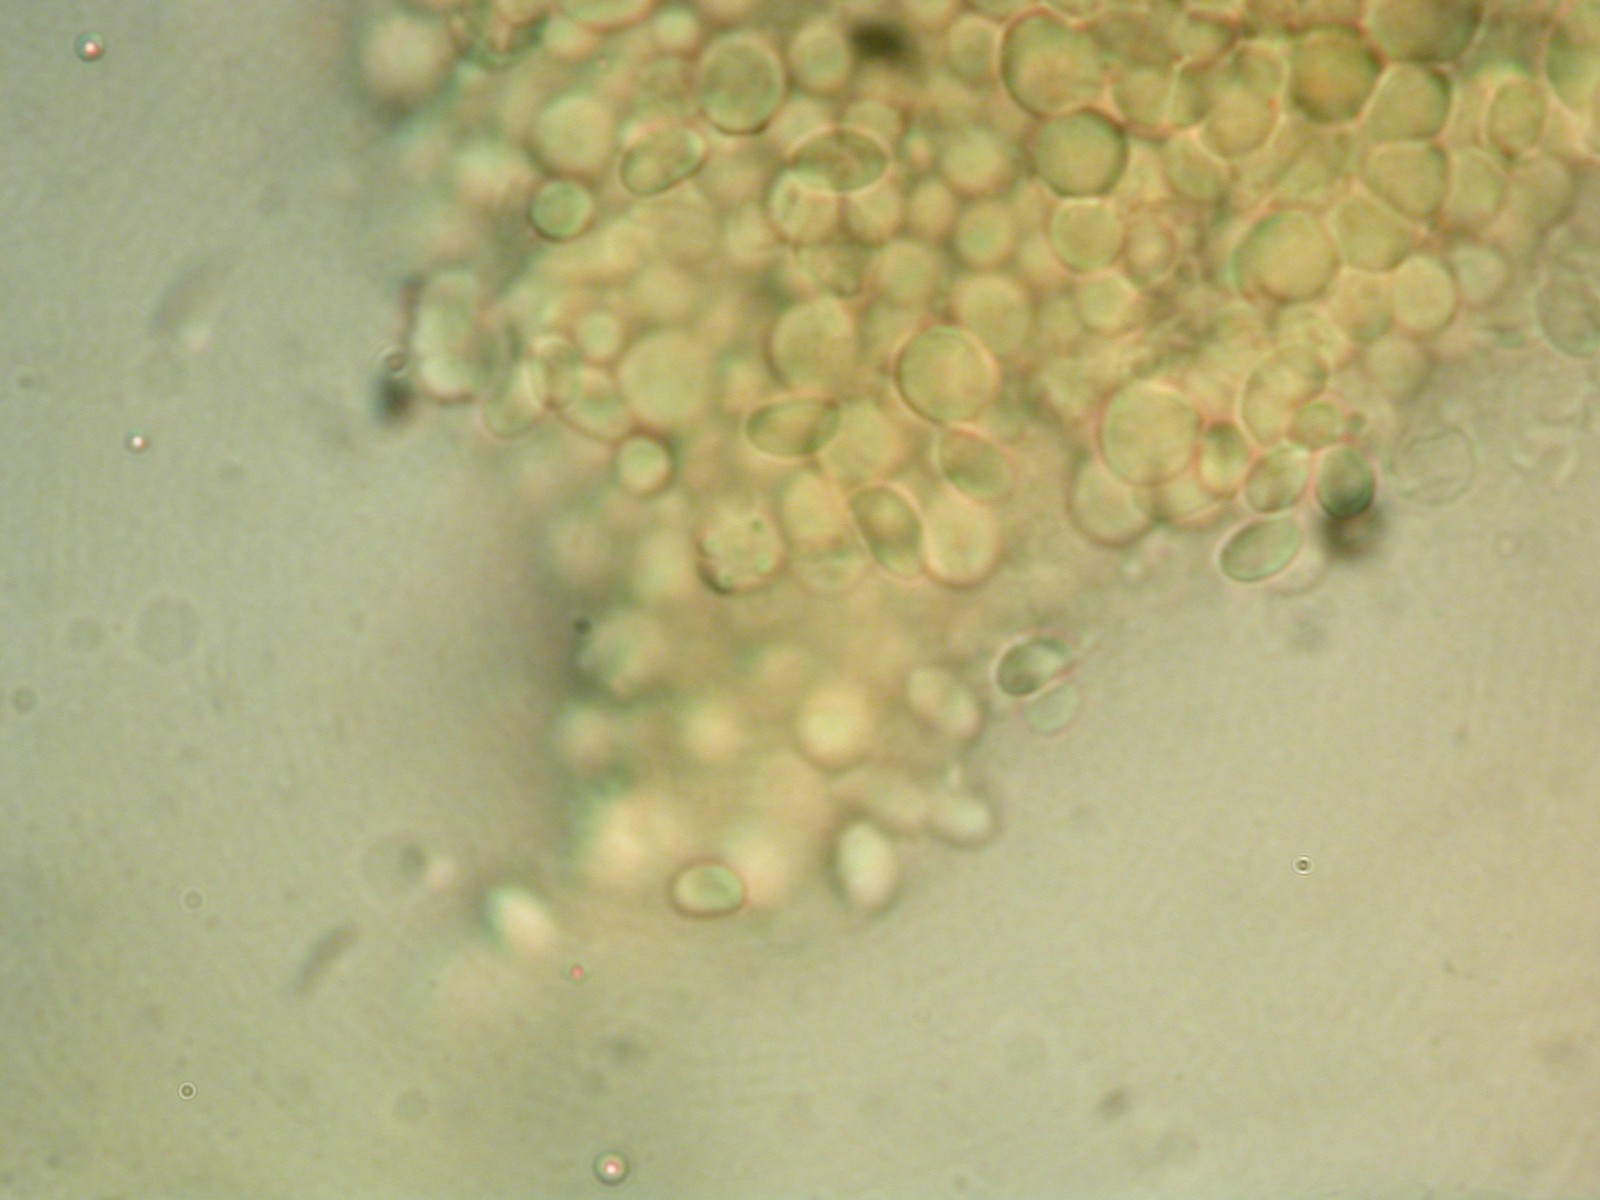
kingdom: Fungi
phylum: Basidiomycota
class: Agaricomycetes
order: Agaricales
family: Tricholomataceae
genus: Clitocybe
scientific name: Clitocybe
